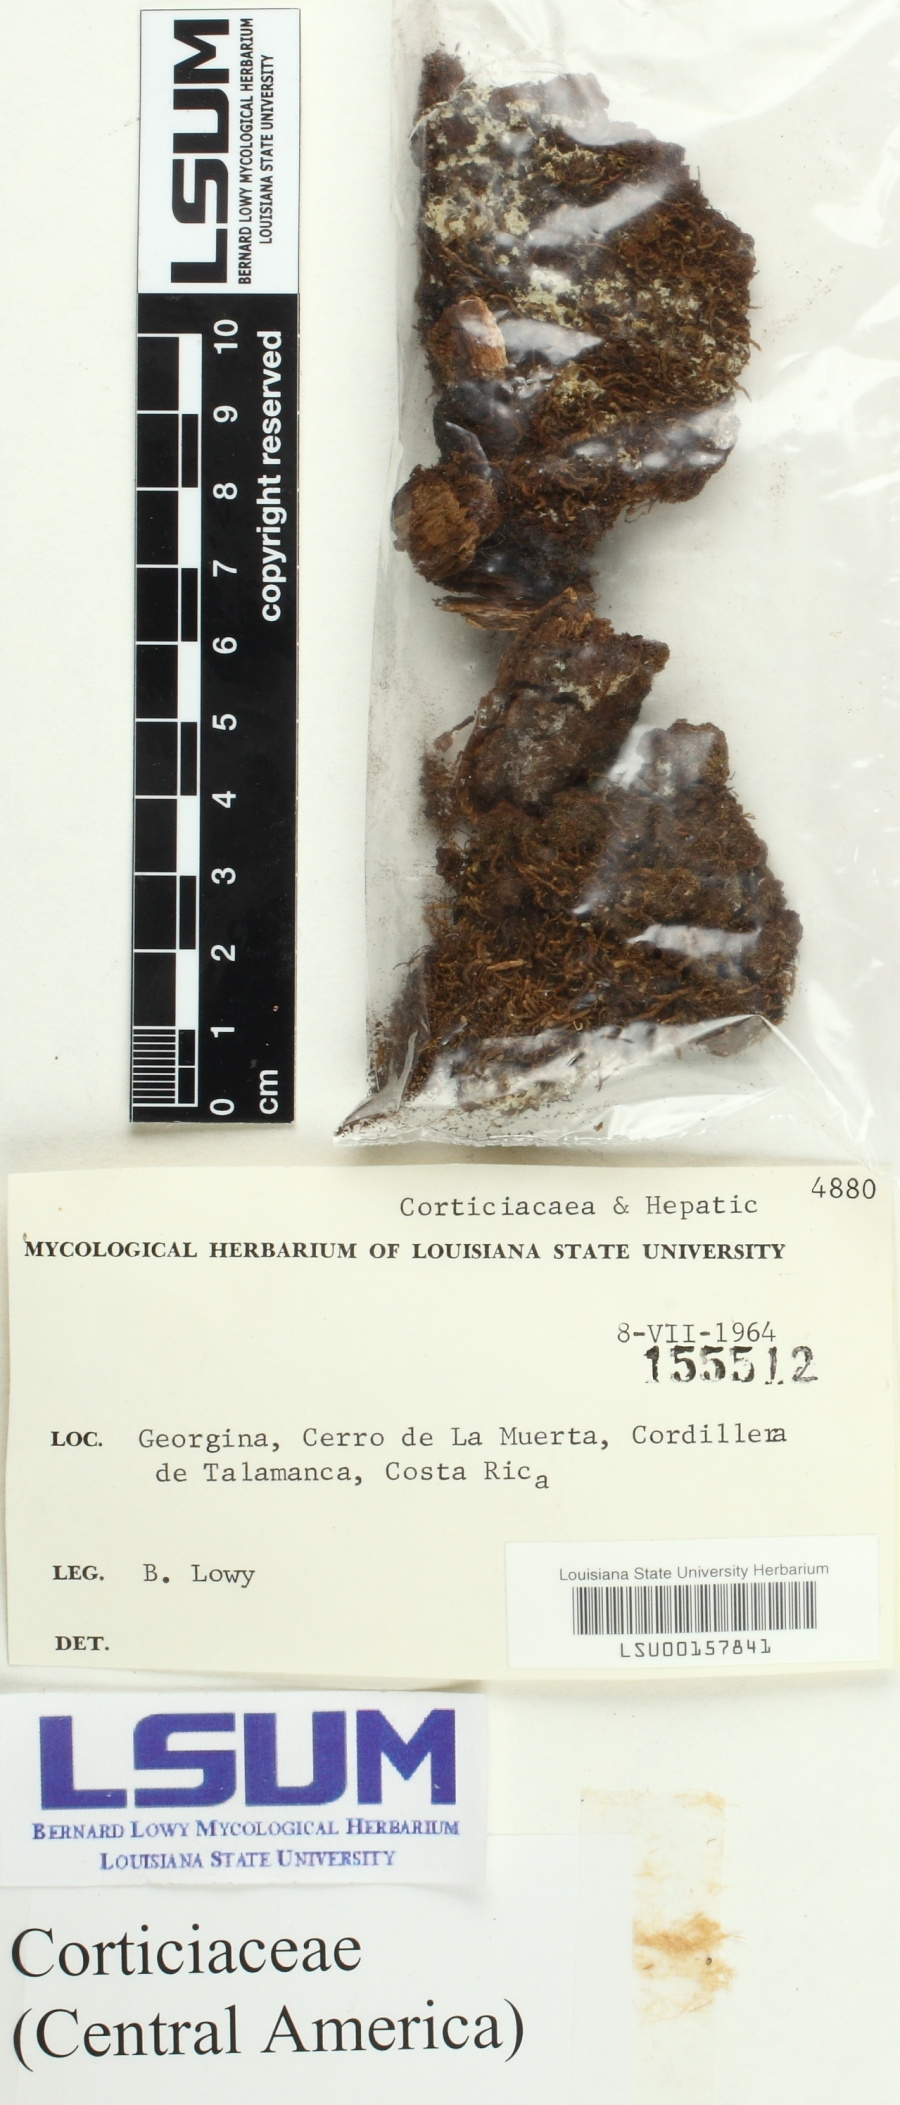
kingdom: Fungi
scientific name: Fungi
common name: Fungi
